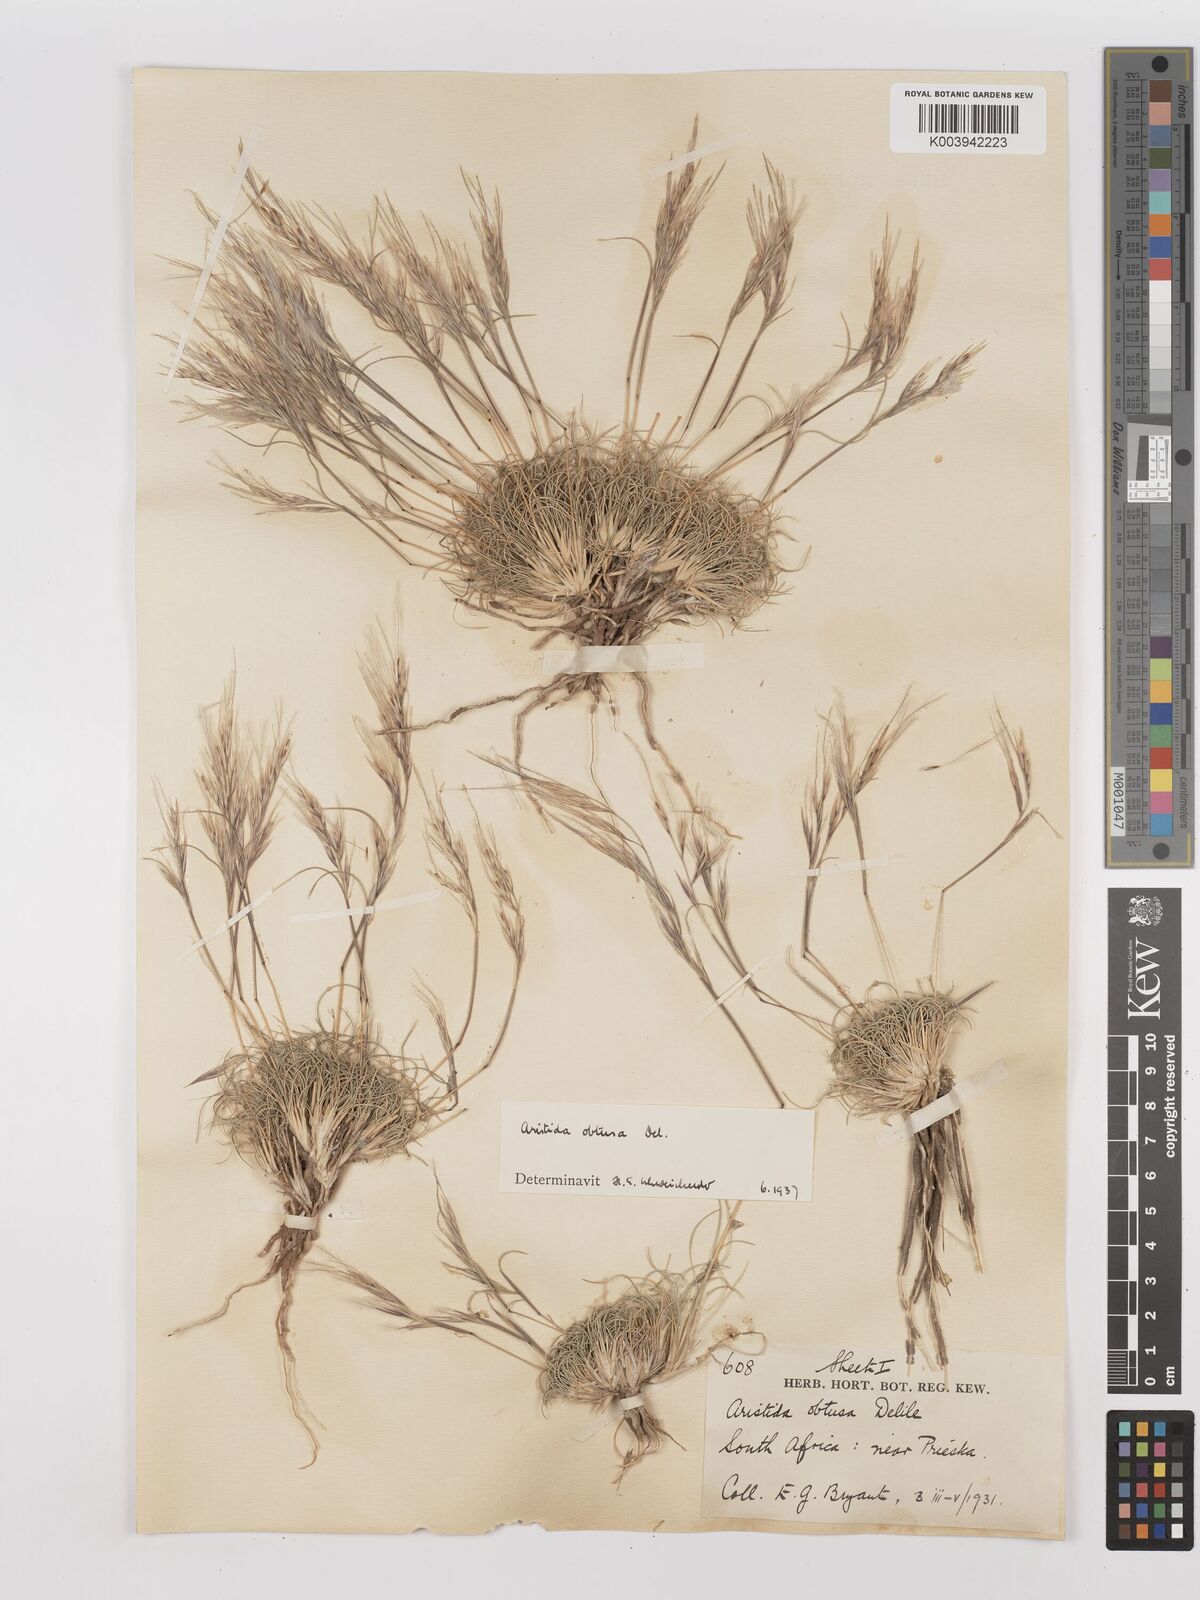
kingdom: Plantae
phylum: Tracheophyta
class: Liliopsida
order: Poales
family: Poaceae
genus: Stipagrostis
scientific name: Stipagrostis obtusa
